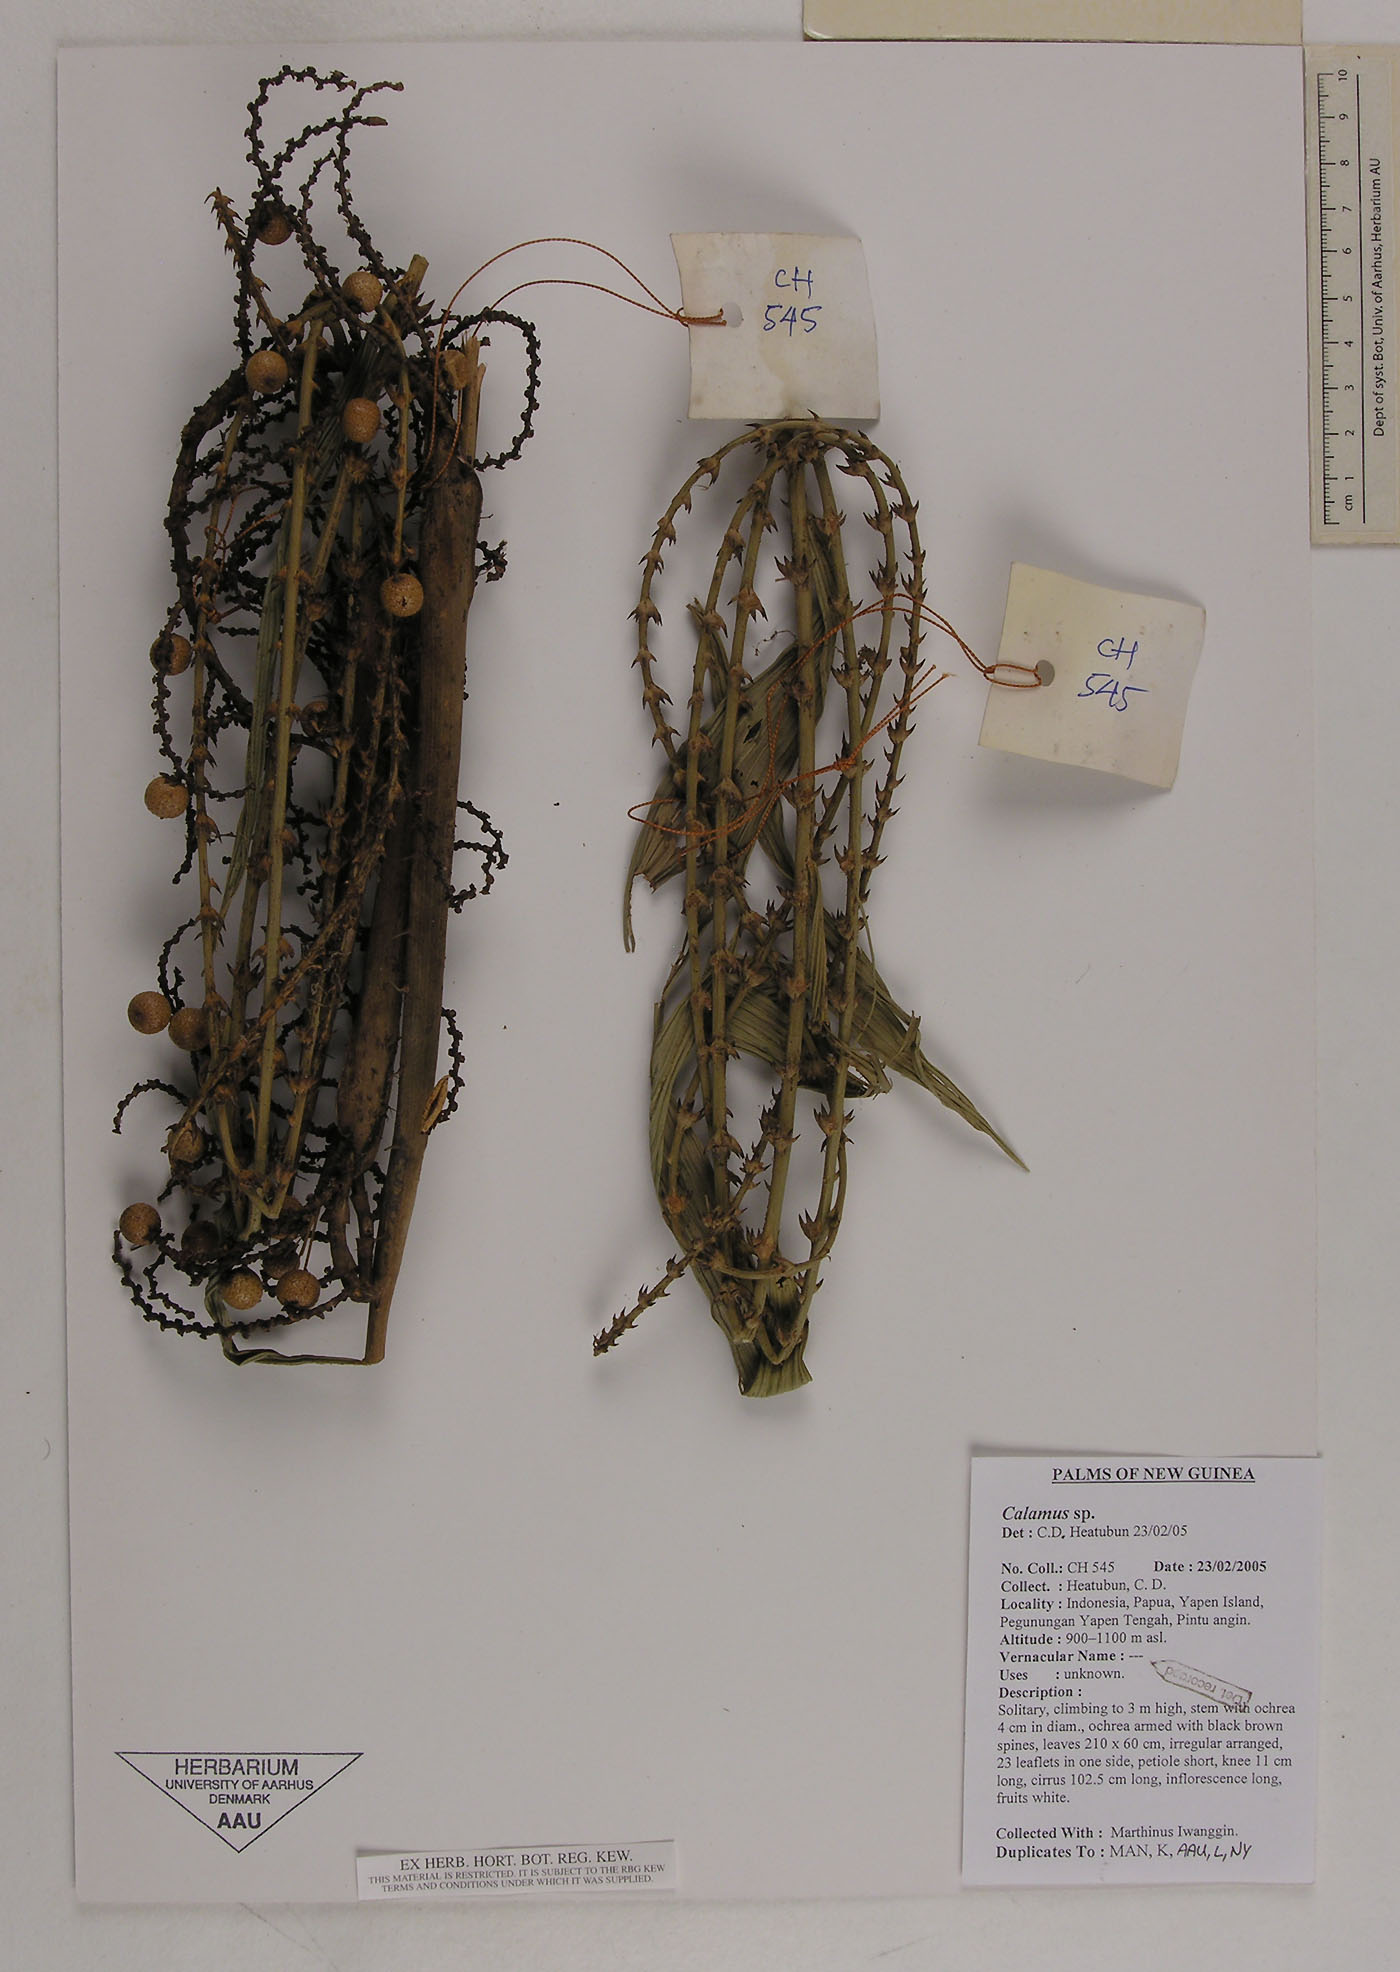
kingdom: Plantae
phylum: Tracheophyta
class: Liliopsida
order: Arecales
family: Arecaceae
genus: Calamus
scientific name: Calamus vitiensis
